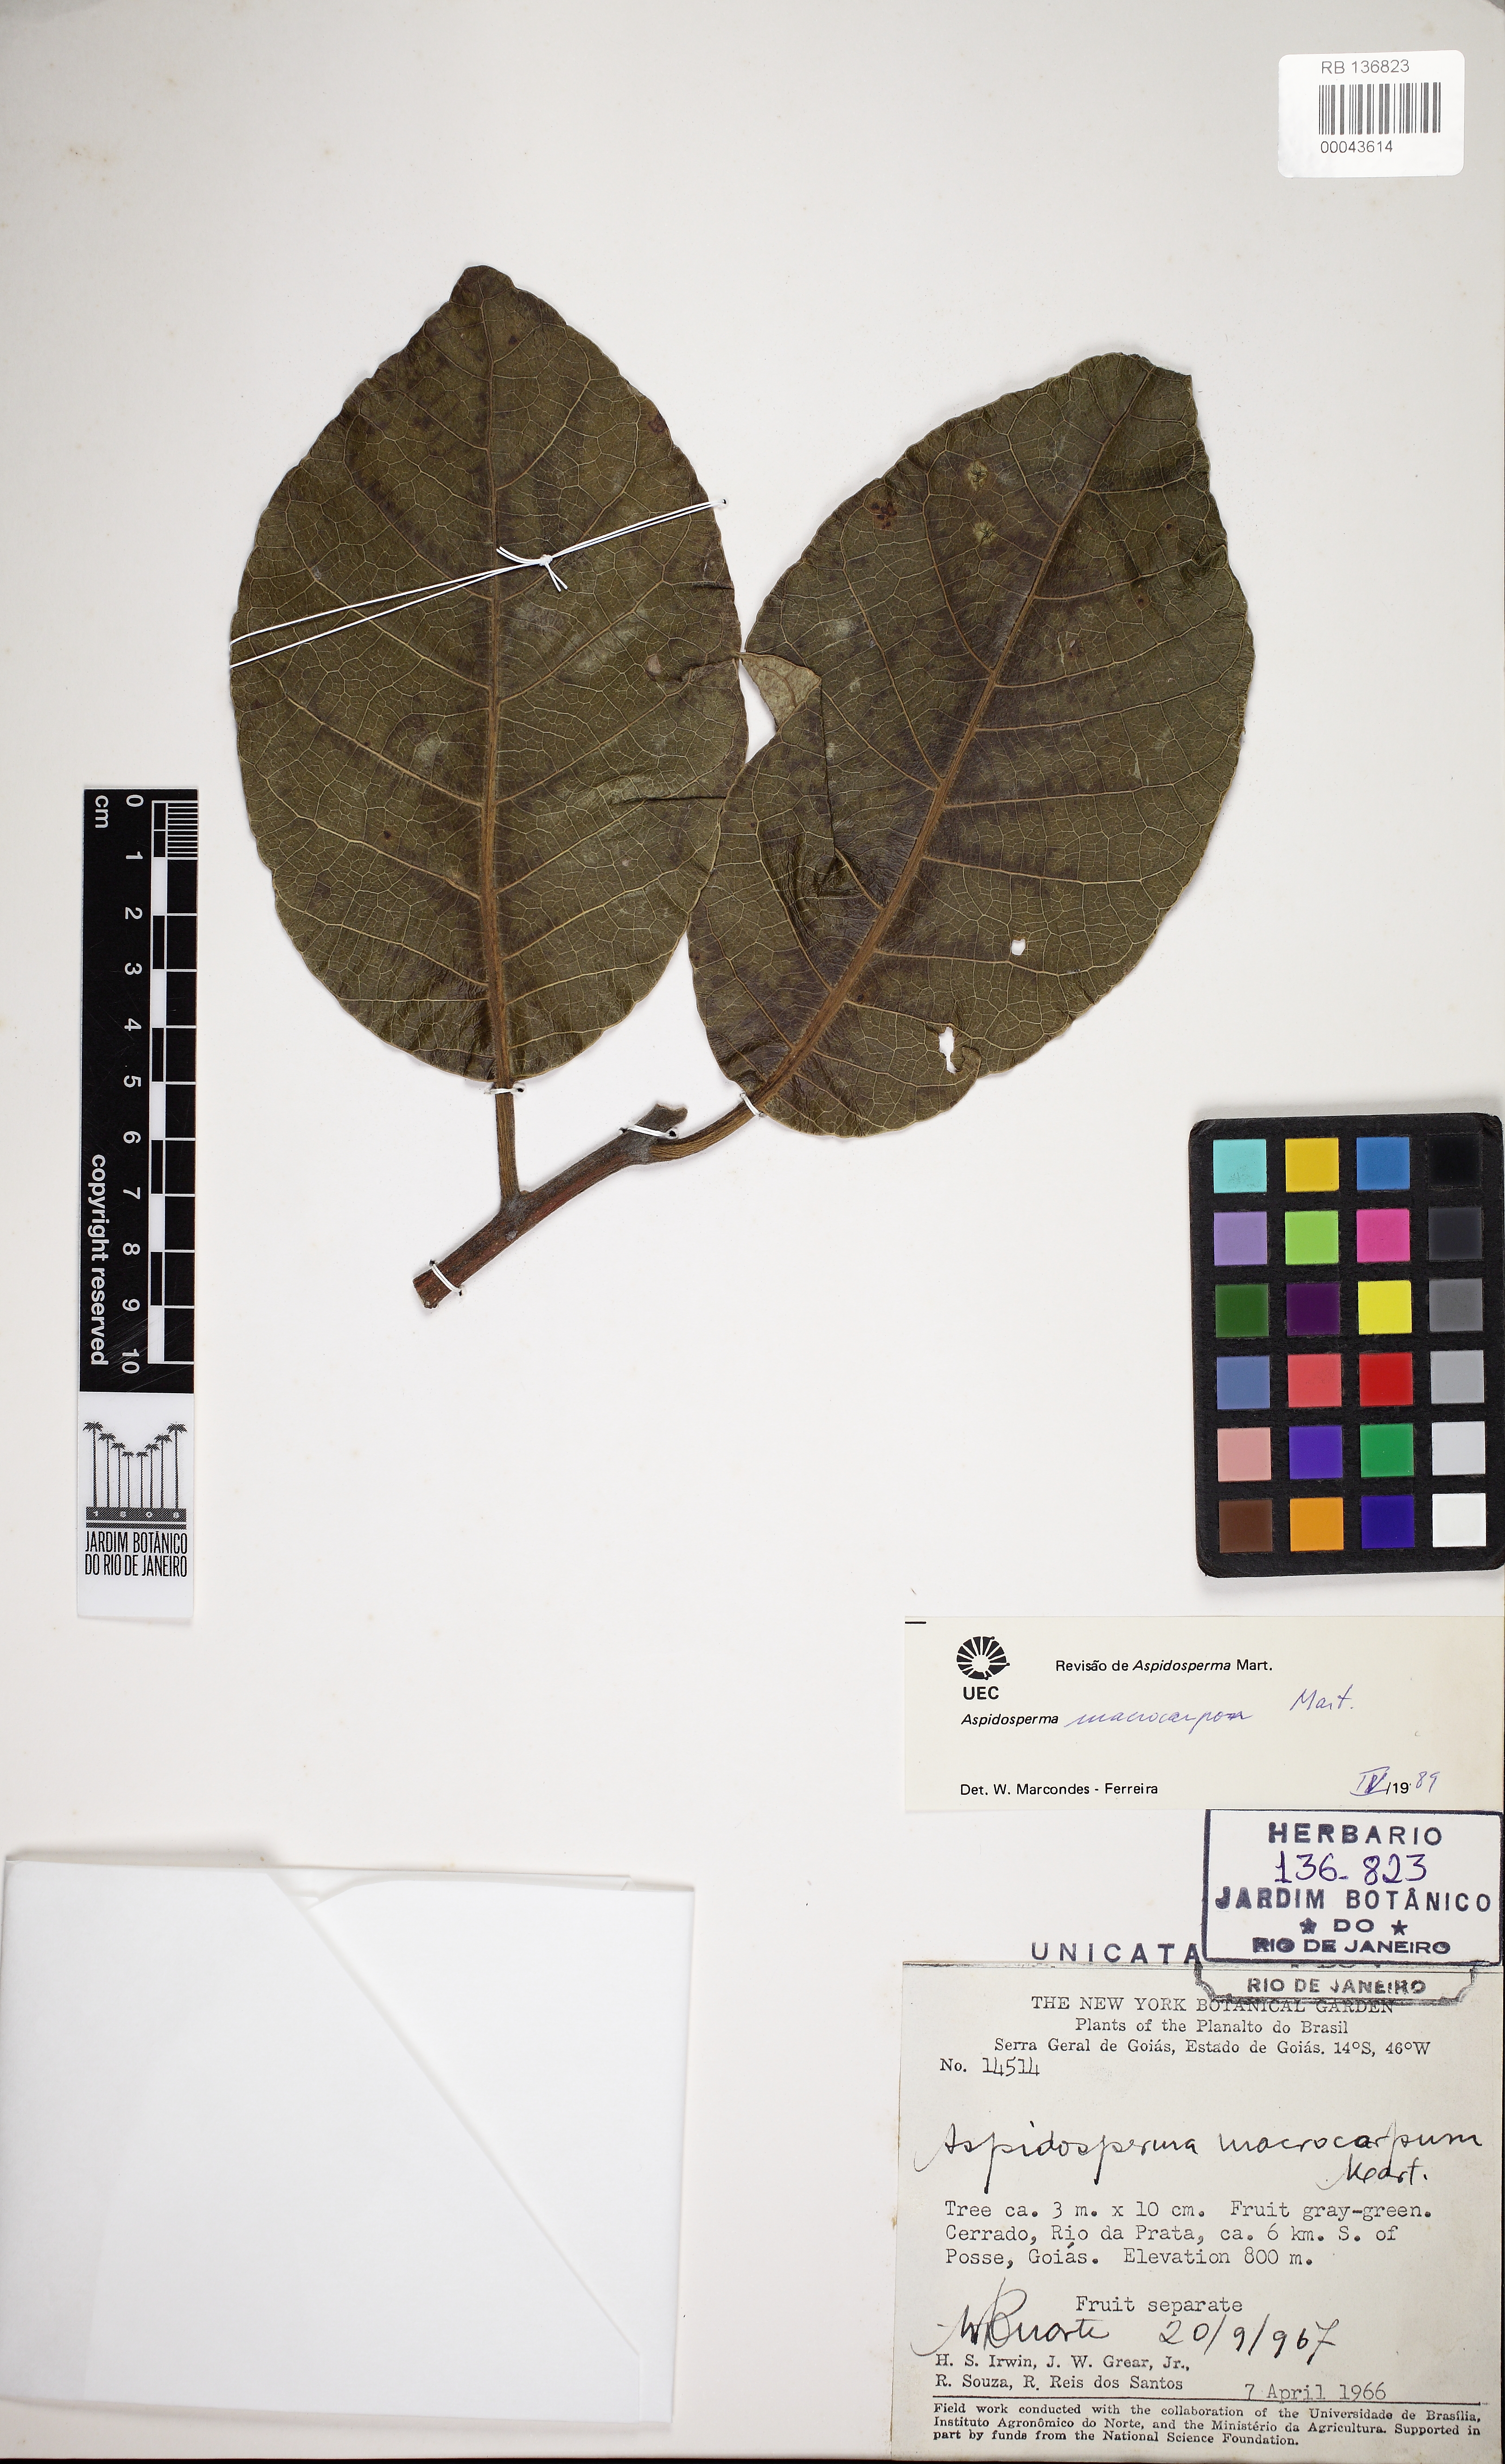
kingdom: Plantae
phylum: Tracheophyta
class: Magnoliopsida
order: Gentianales
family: Apocynaceae
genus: Aspidosperma
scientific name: Aspidosperma macrocarpon
